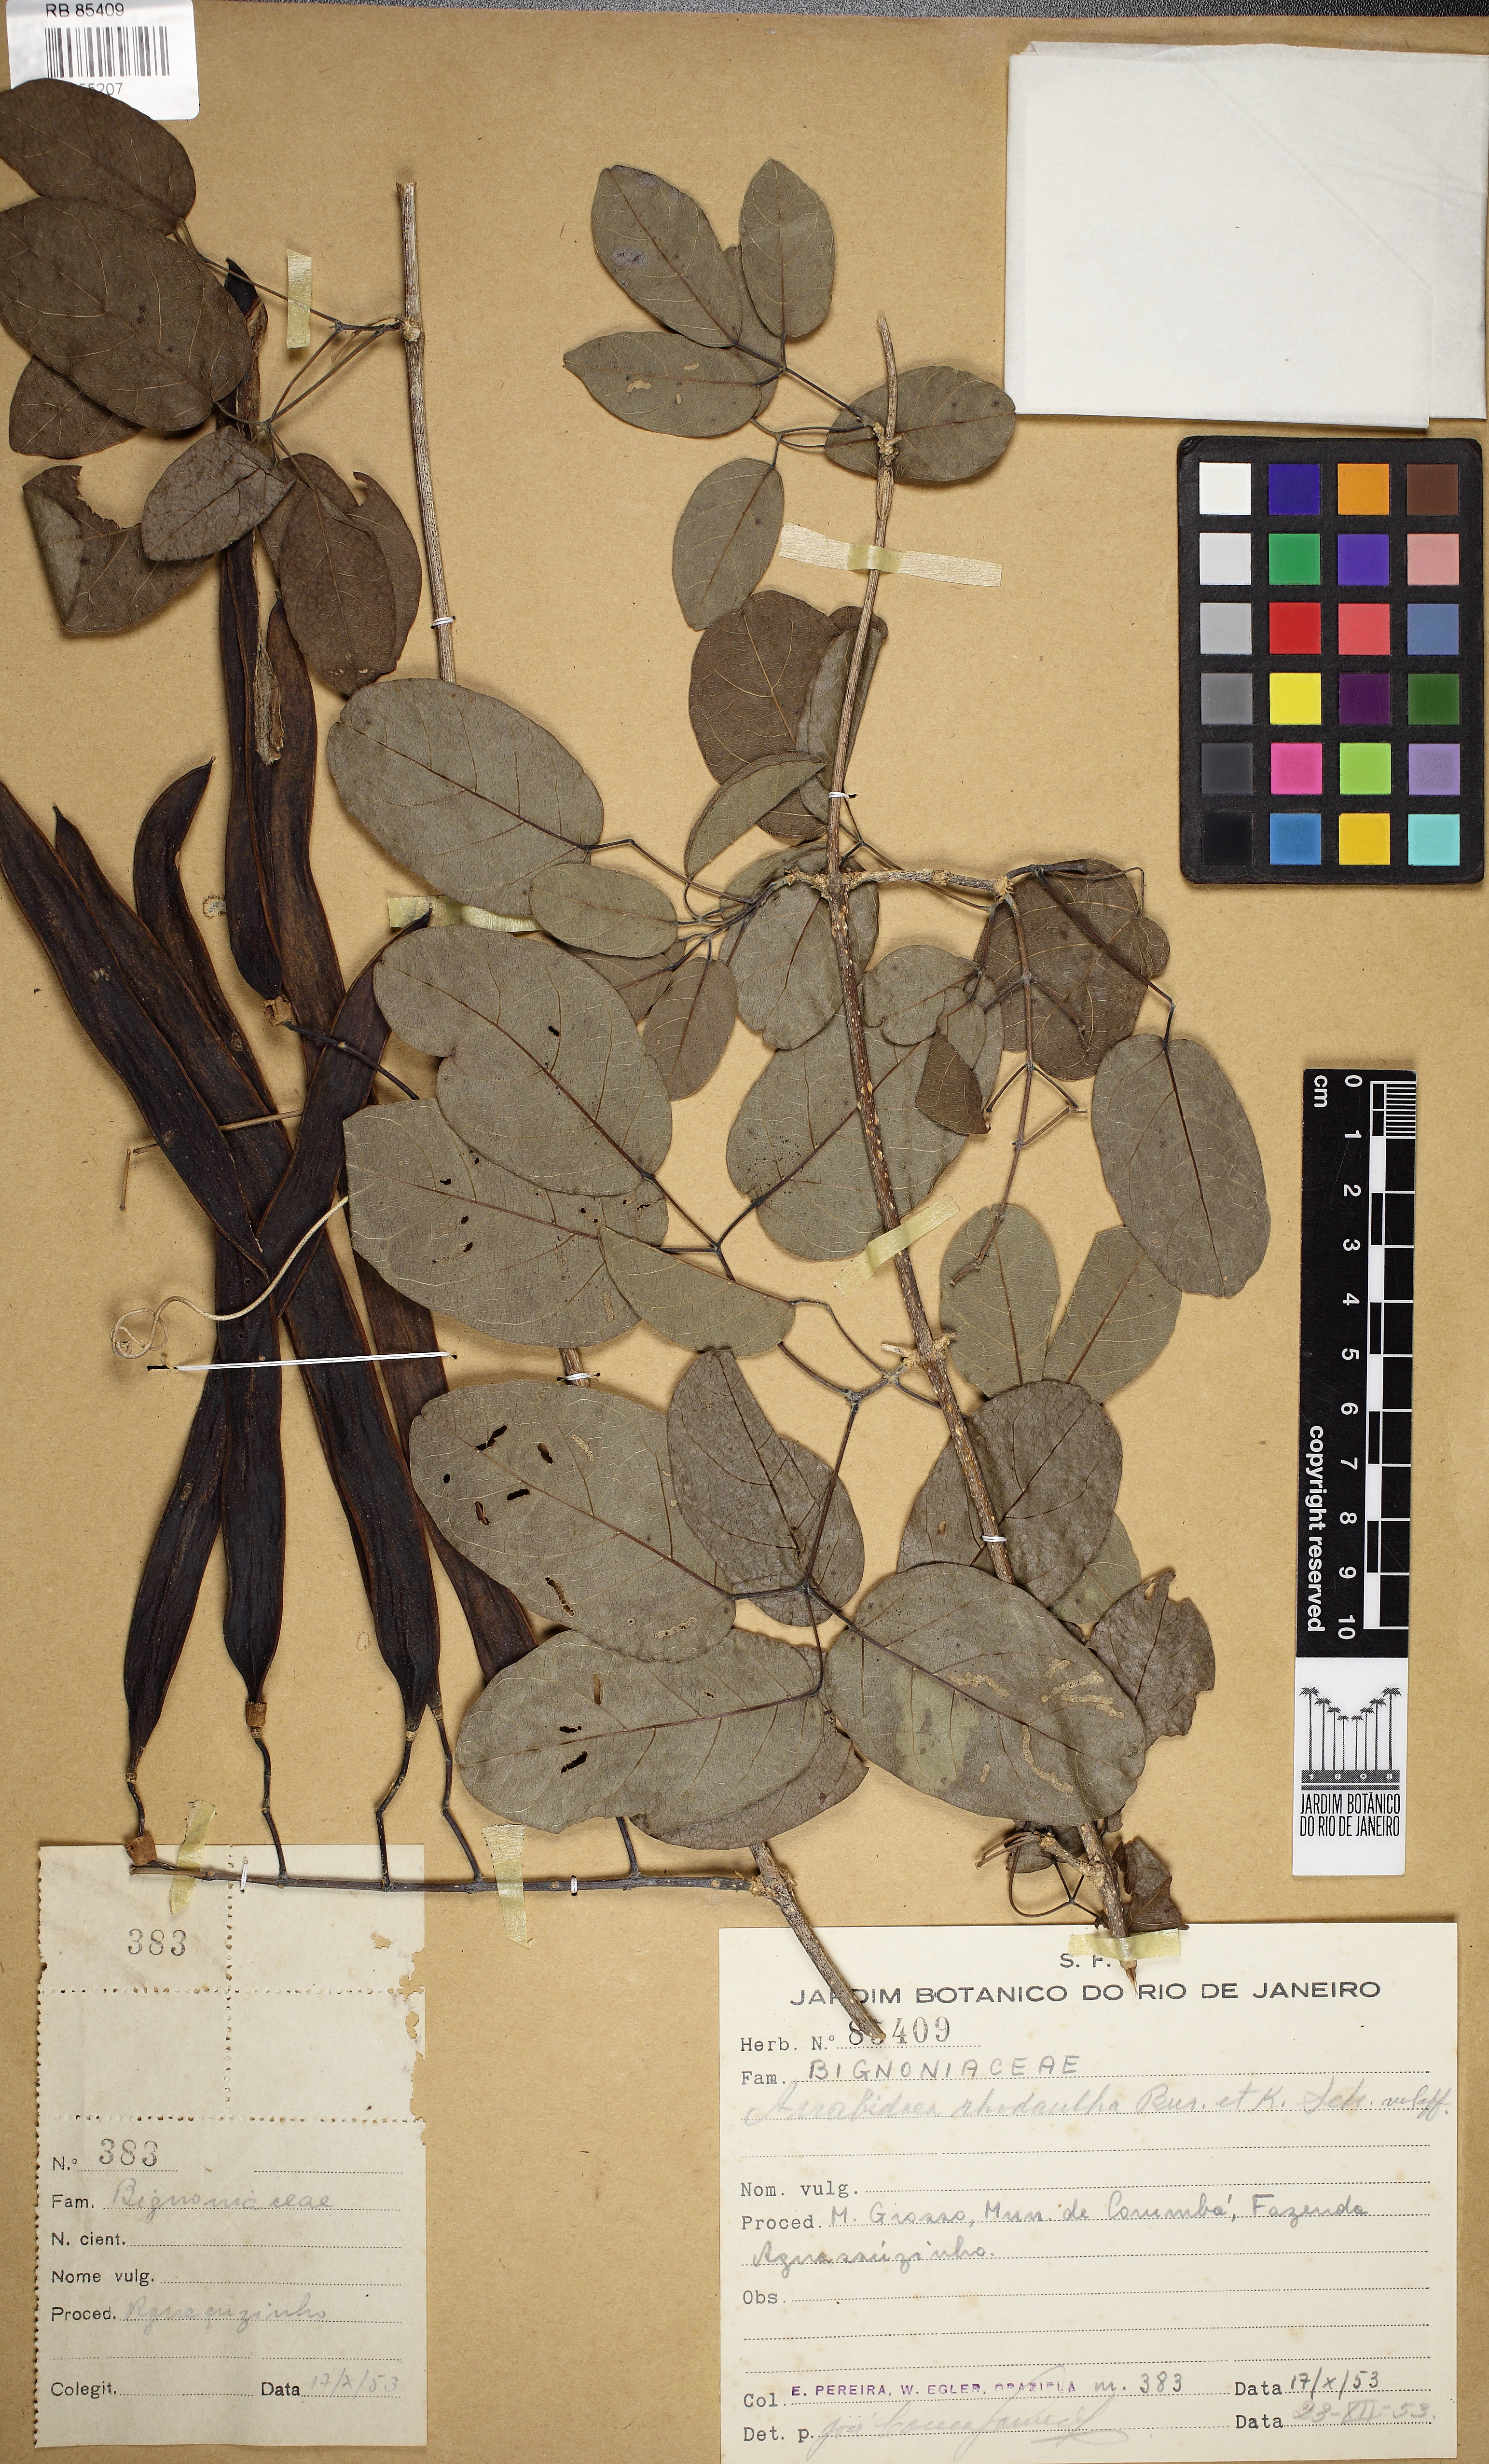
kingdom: Plantae
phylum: Tracheophyta
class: Magnoliopsida
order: Lamiales
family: Bignoniaceae
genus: Tanaecium
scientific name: Tanaecium dichotomum
